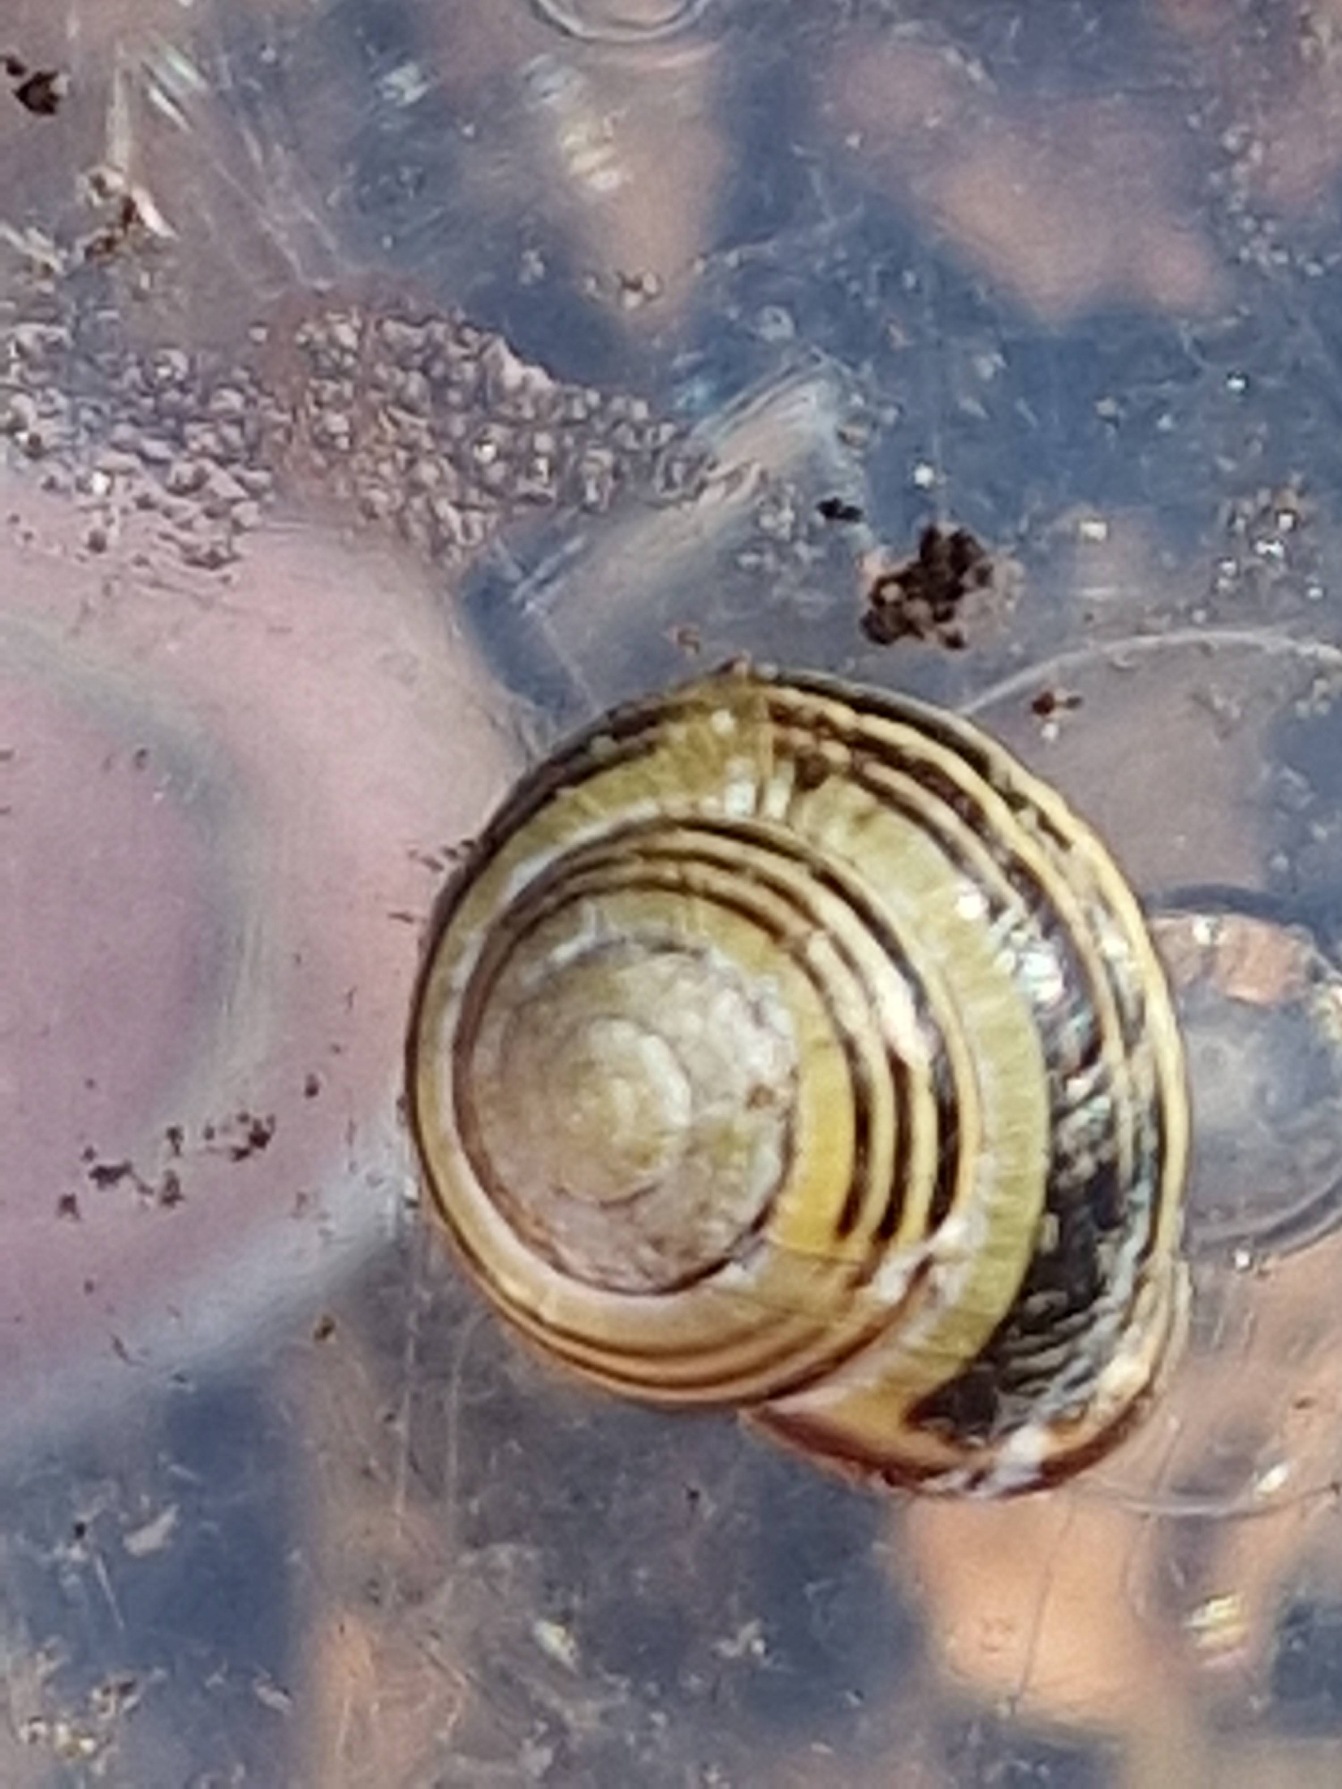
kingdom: Animalia
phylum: Mollusca
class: Gastropoda
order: Stylommatophora
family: Helicidae
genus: Cepaea
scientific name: Cepaea nemoralis
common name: Lundsnegl
